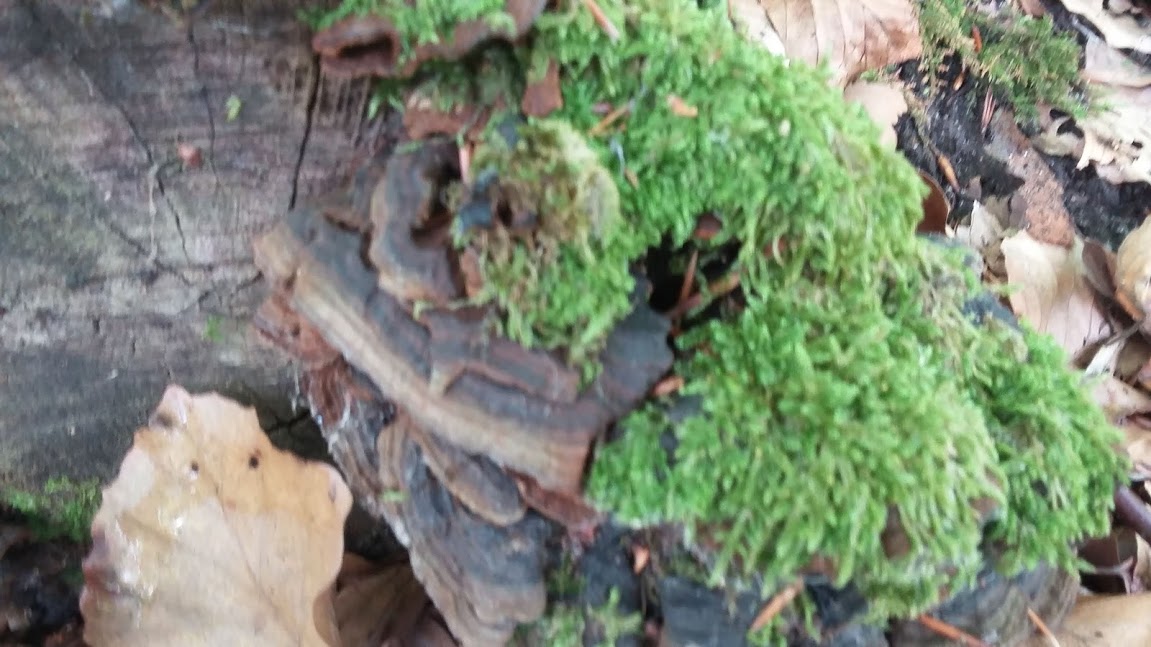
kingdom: Fungi
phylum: Basidiomycota
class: Agaricomycetes
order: Hymenochaetales
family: Hymenochaetaceae
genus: Hymenochaete
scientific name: Hymenochaete rubiginosa
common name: stiv ruslædersvamp
